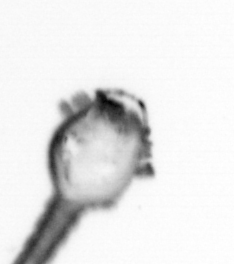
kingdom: Animalia
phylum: Arthropoda
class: Copepoda
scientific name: Copepoda
